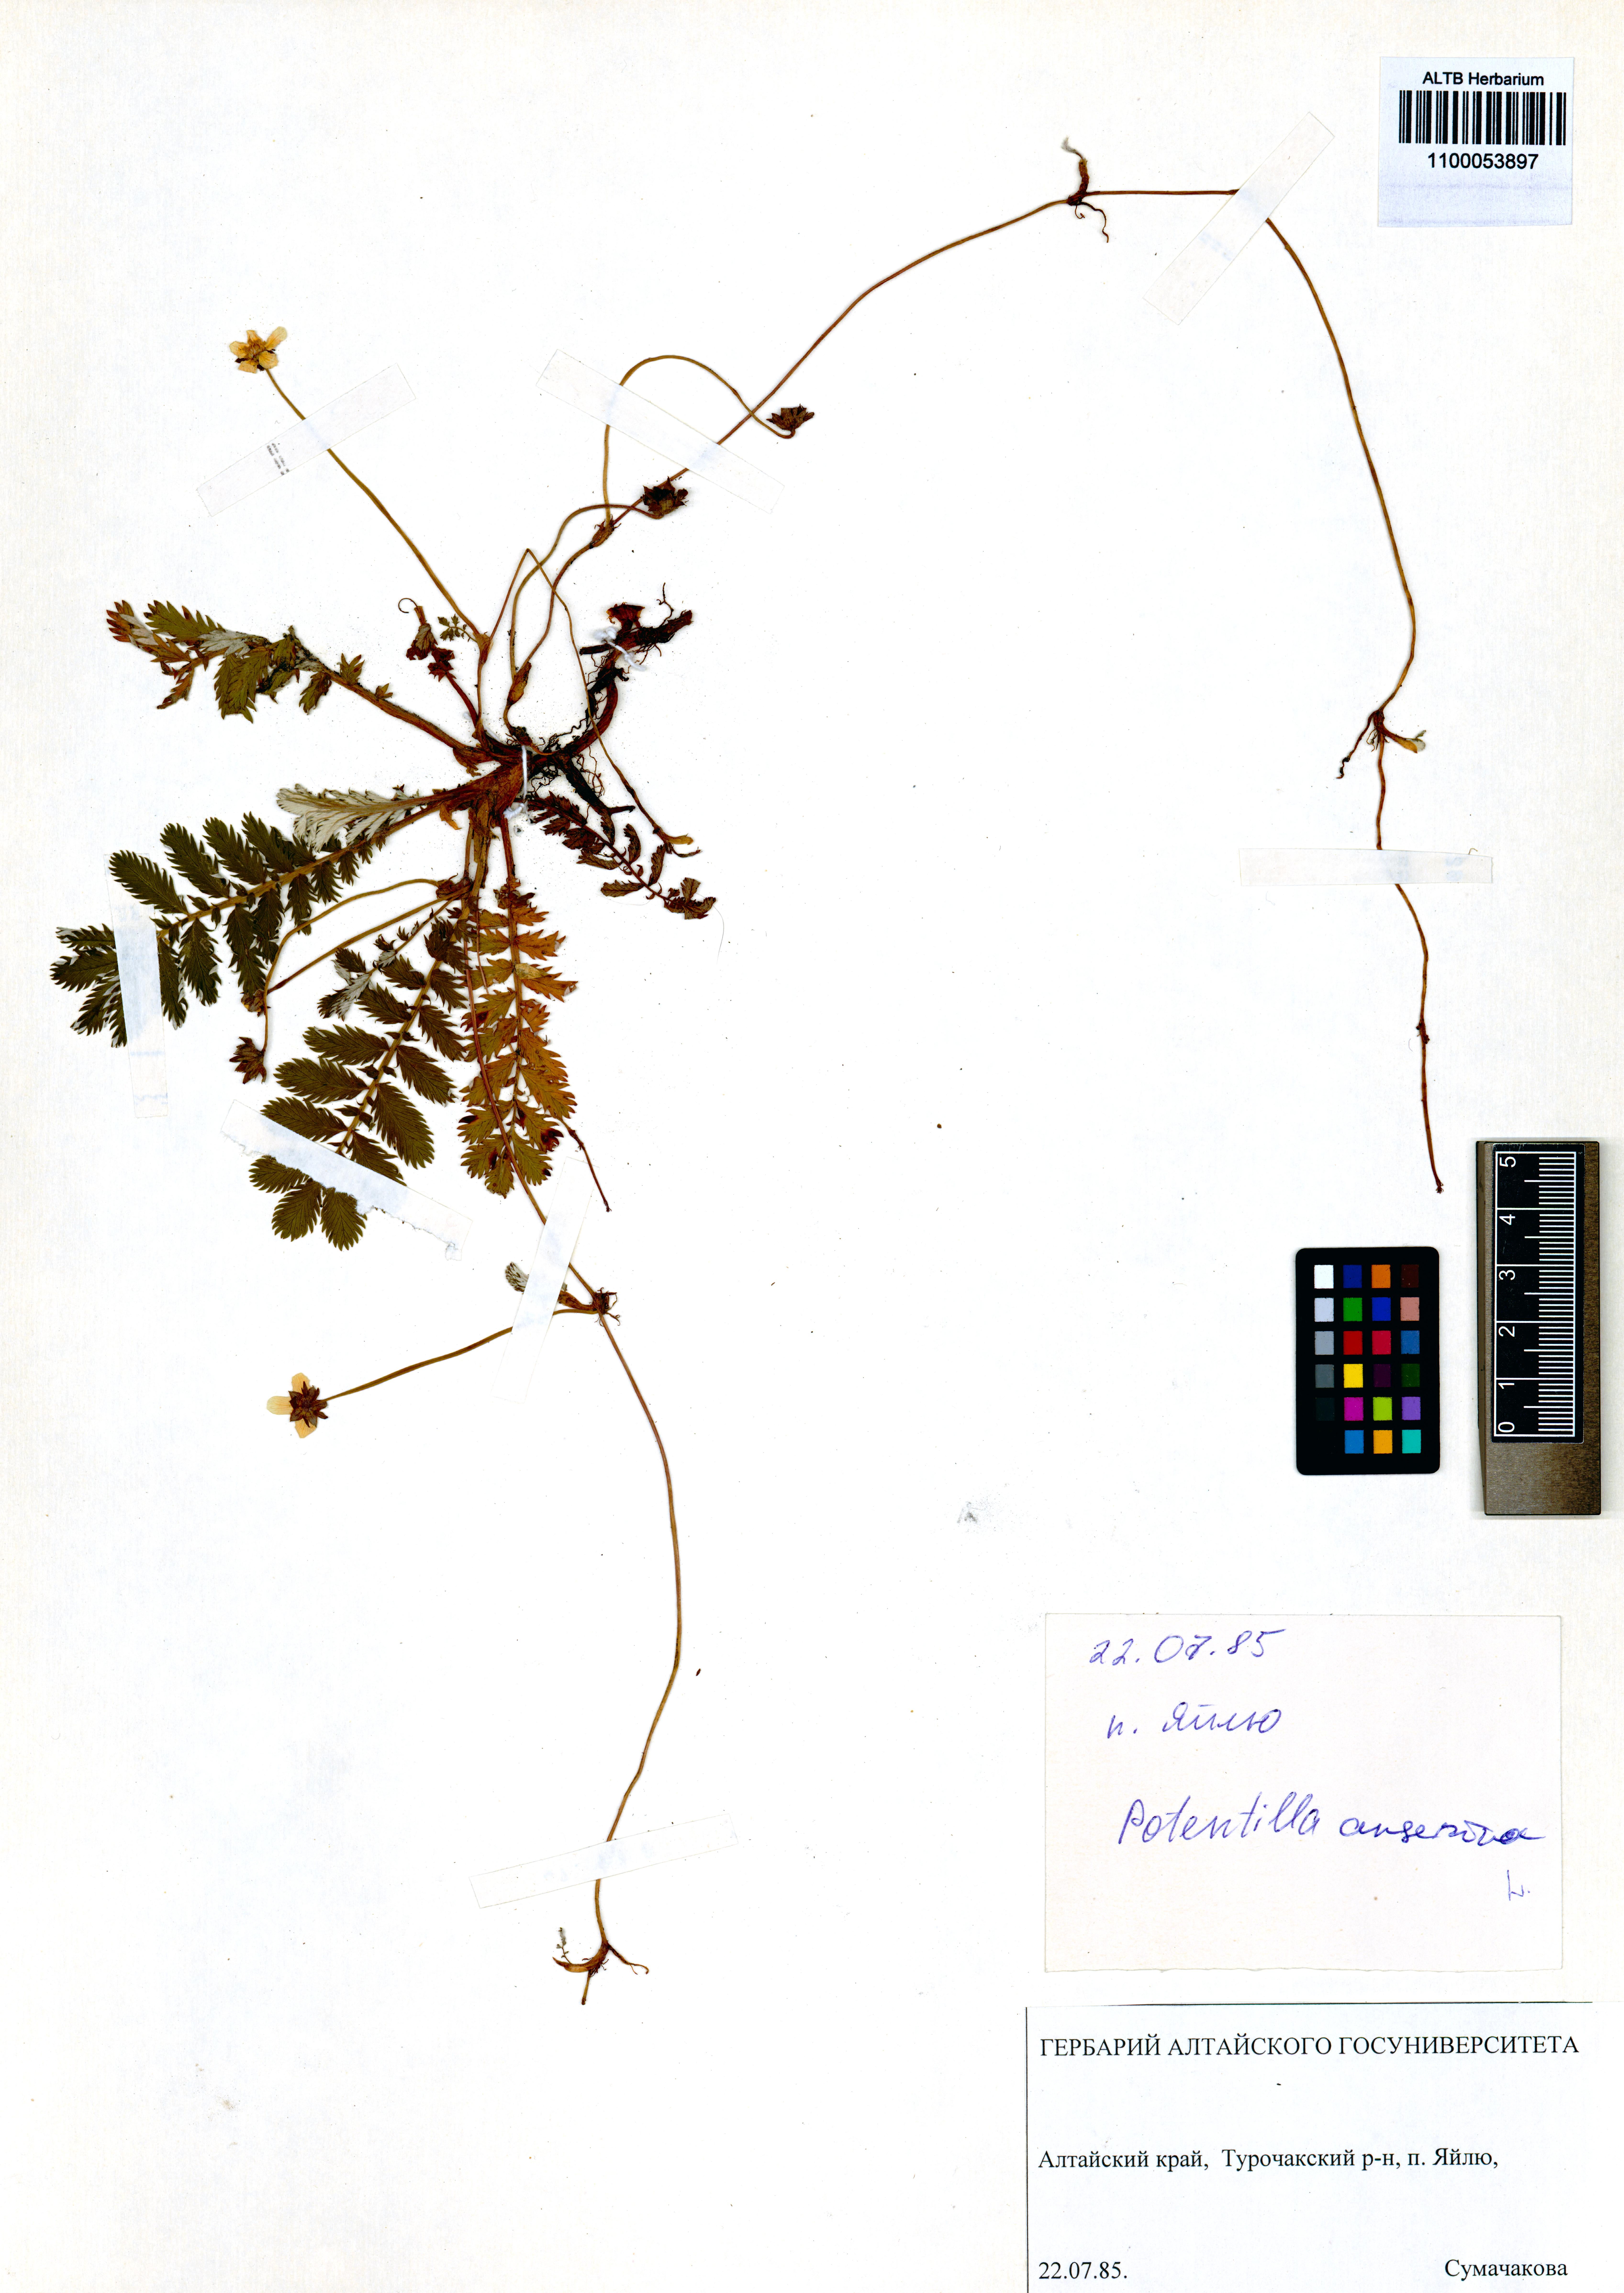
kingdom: Plantae
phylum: Tracheophyta
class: Magnoliopsida
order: Rosales
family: Rosaceae
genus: Argentina
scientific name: Argentina anserina
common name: Common silverweed
